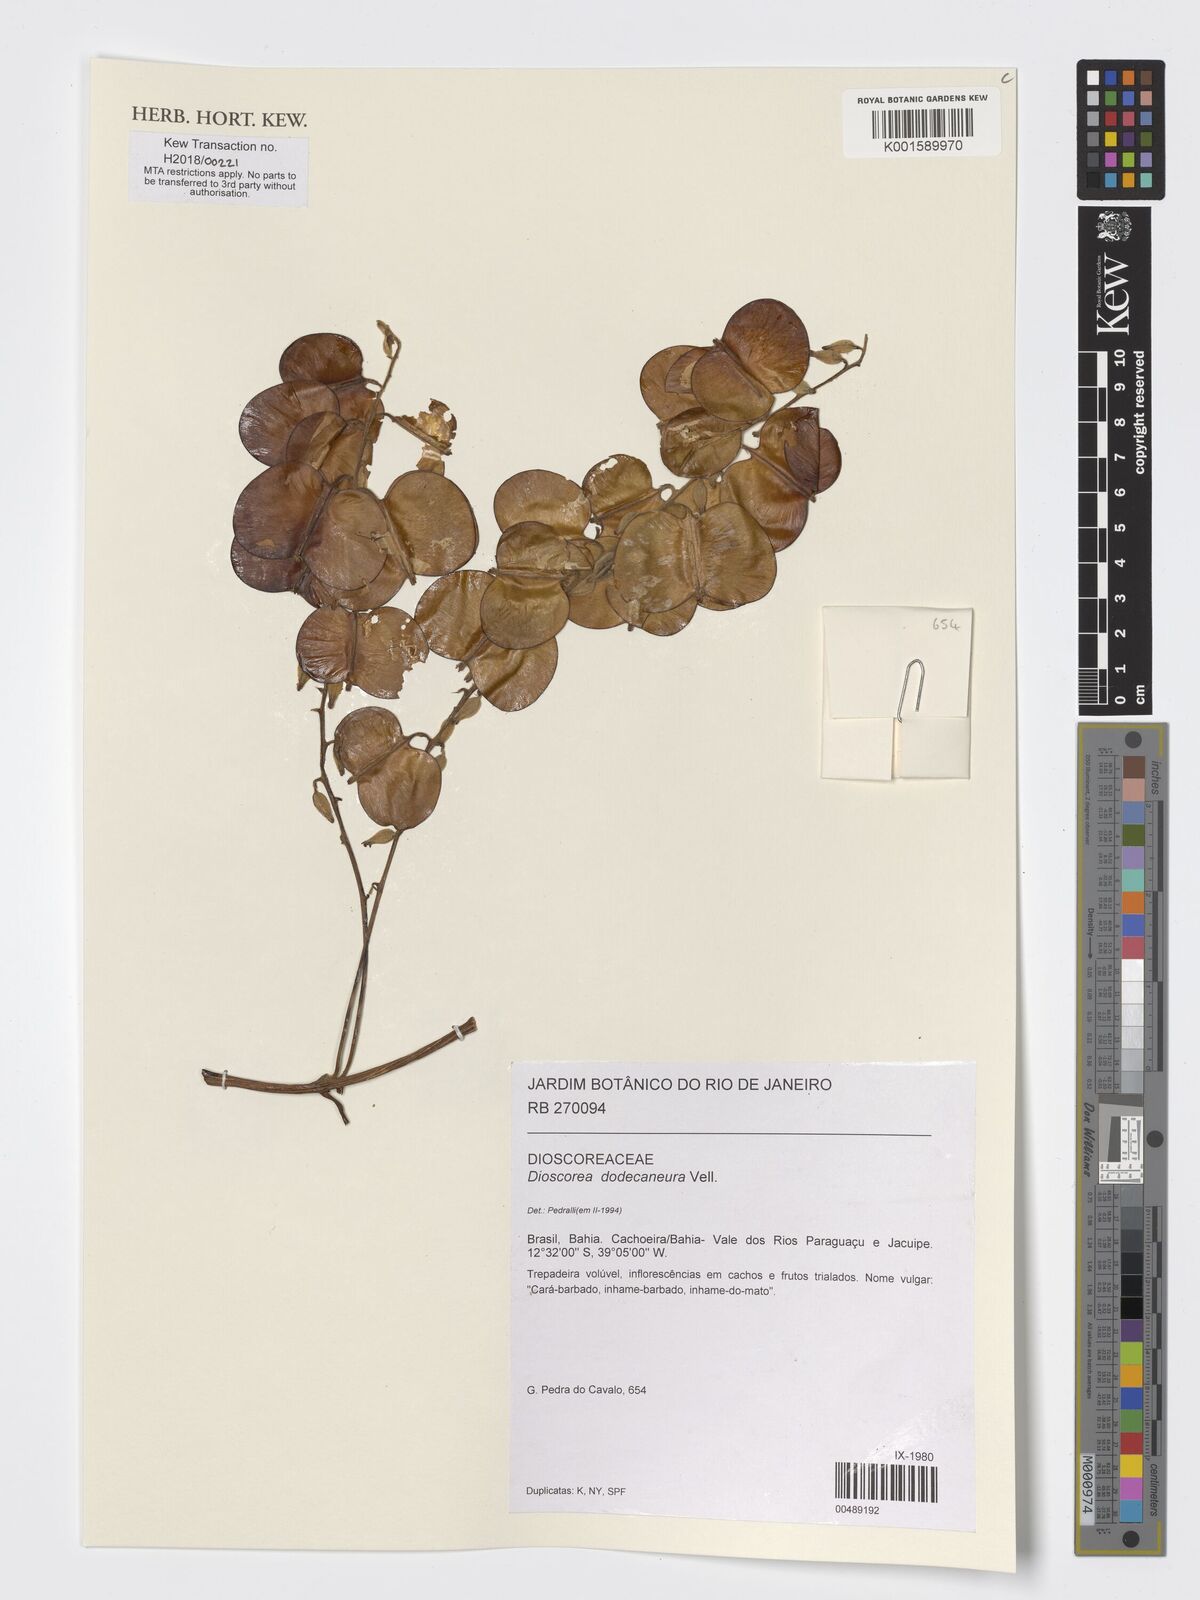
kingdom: Plantae
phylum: Tracheophyta
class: Liliopsida
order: Dioscoreales
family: Dioscoreaceae
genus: Dioscorea
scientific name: Dioscorea dodecaneura
